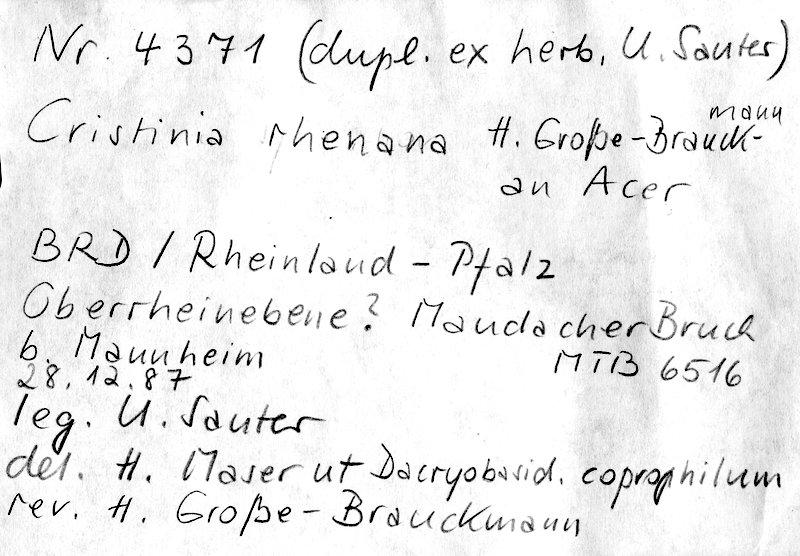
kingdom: Plantae
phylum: Tracheophyta
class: Magnoliopsida
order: Sapindales
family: Sapindaceae
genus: Acer
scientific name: Acer
